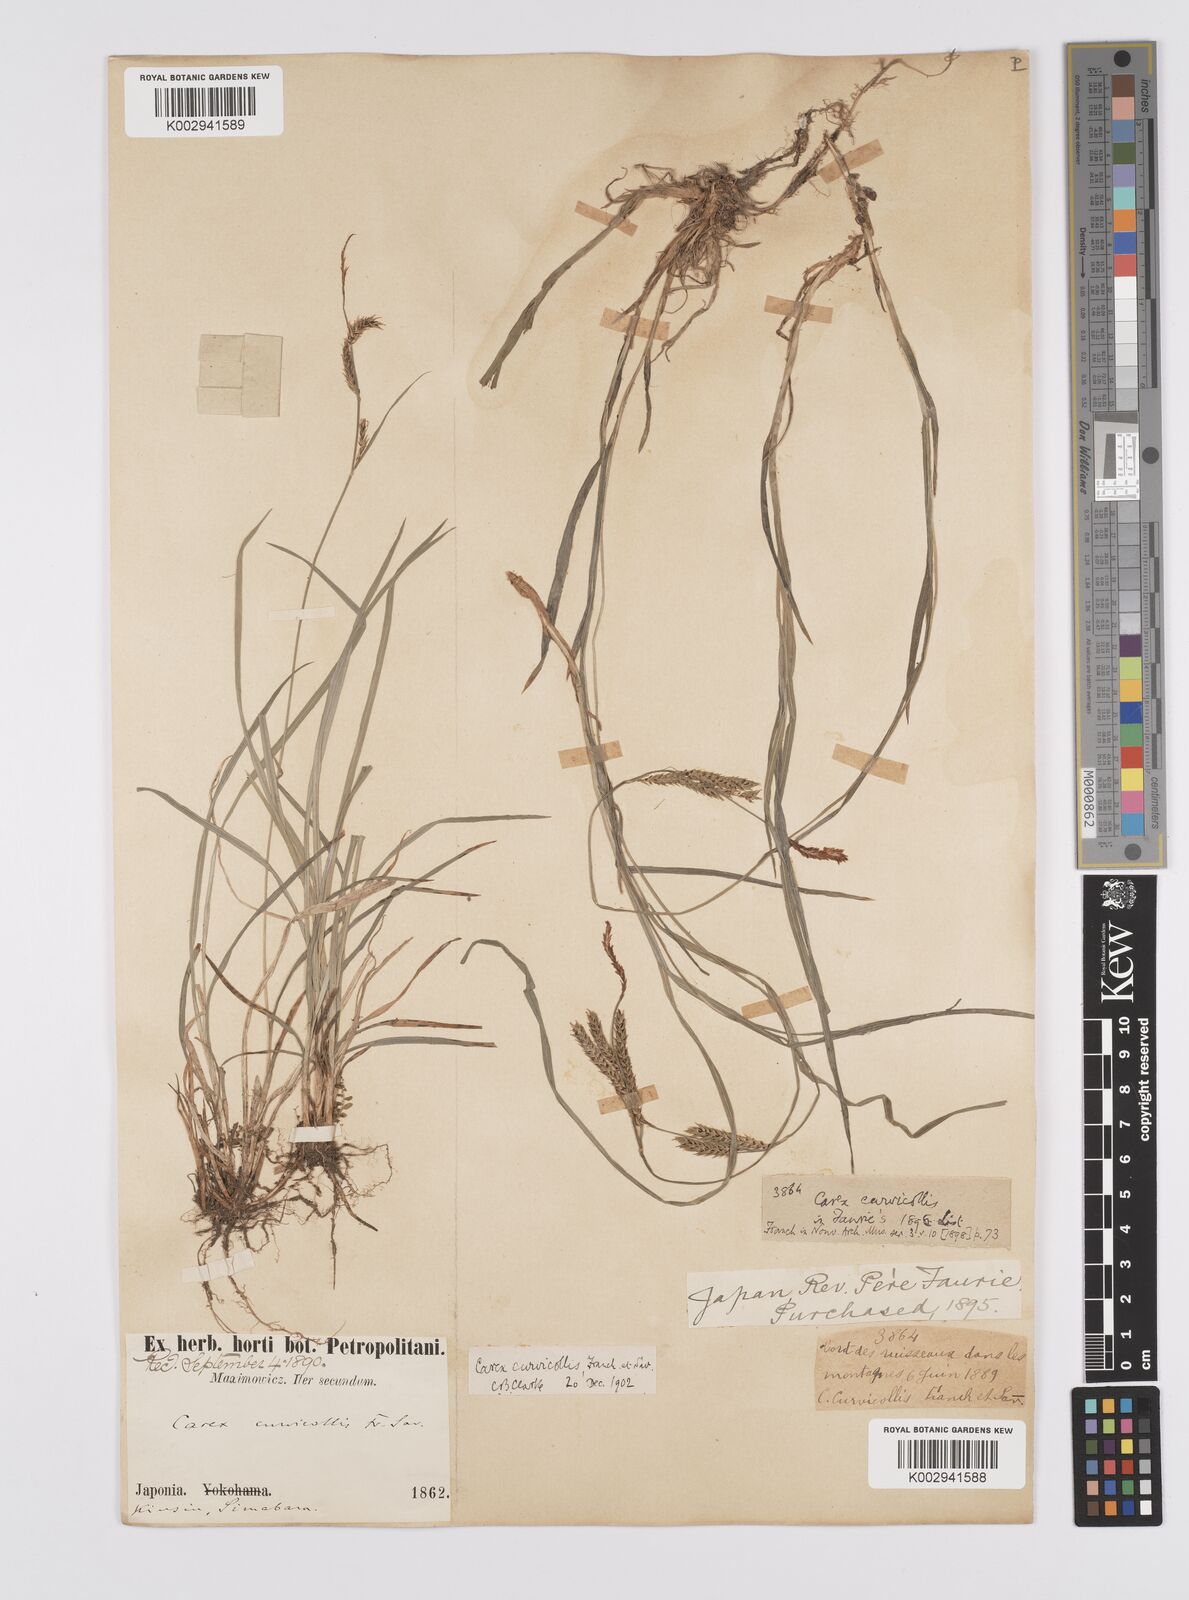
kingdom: Plantae
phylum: Tracheophyta
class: Liliopsida
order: Poales
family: Cyperaceae
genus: Carex
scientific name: Carex curvicollis
